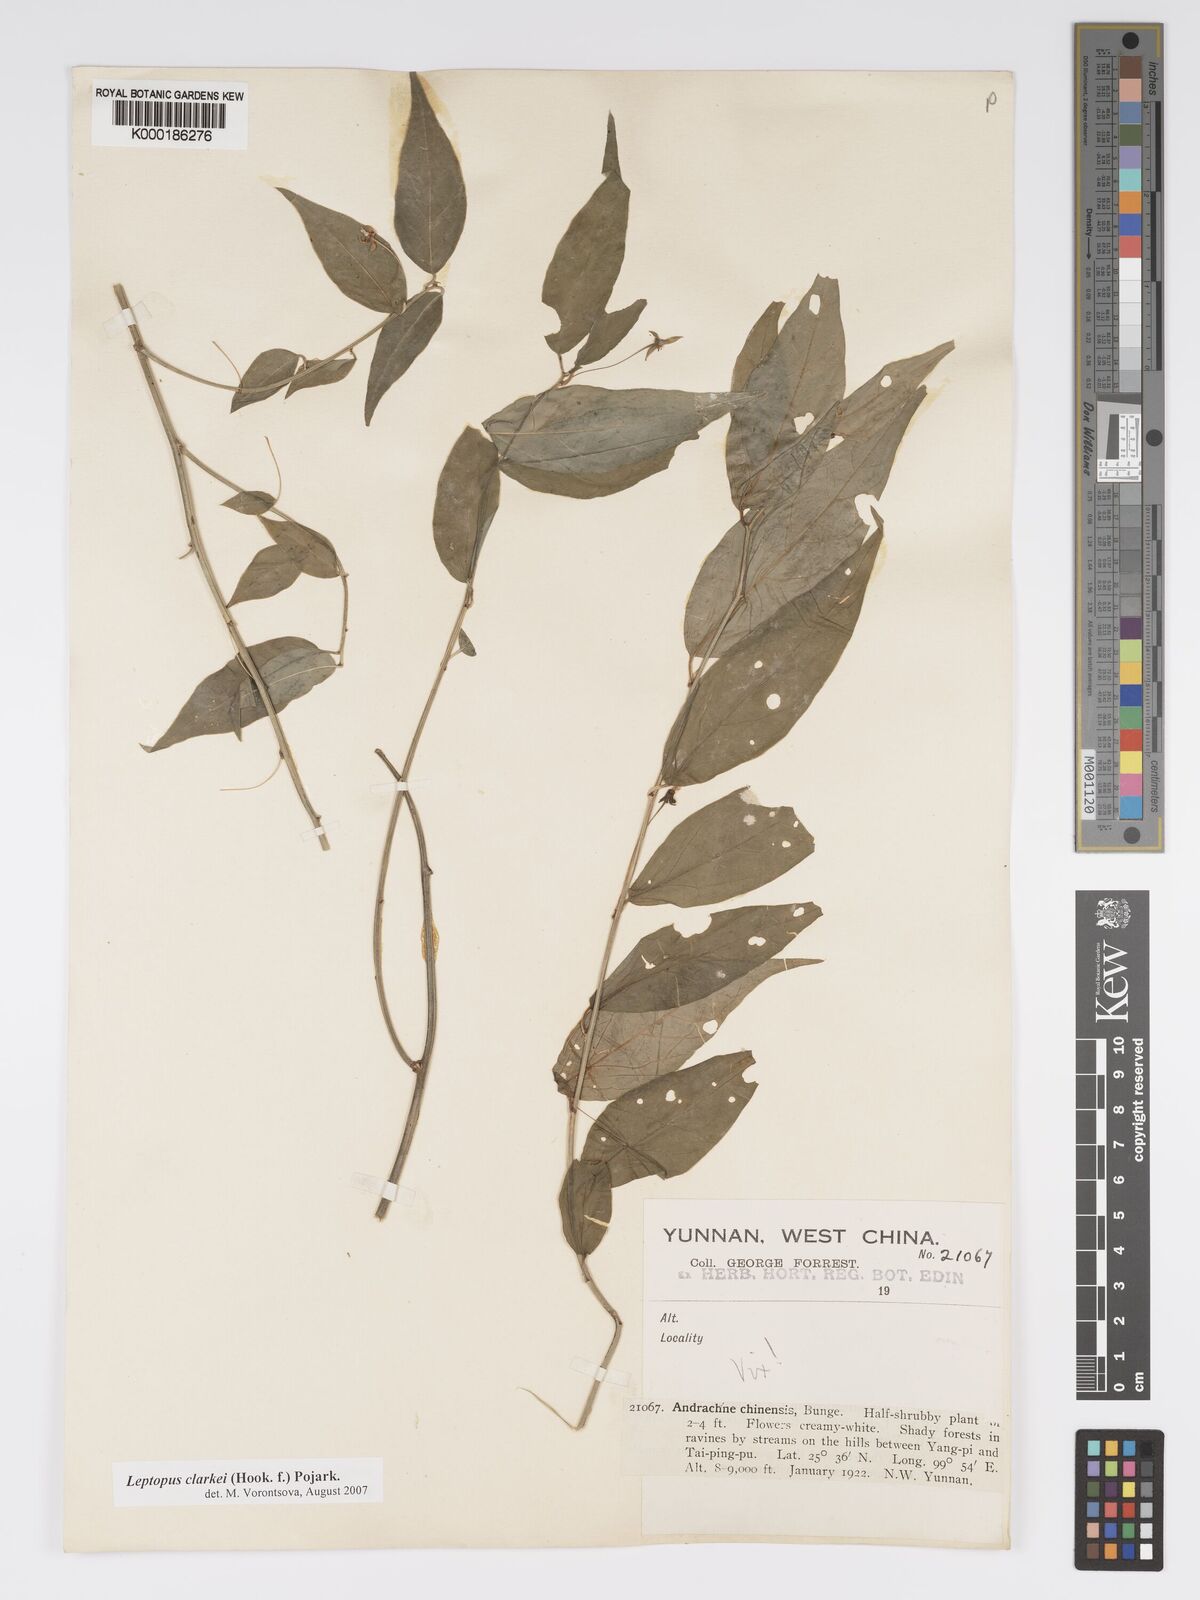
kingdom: Plantae
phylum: Tracheophyta
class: Magnoliopsida
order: Malpighiales
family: Phyllanthaceae
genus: Leptopus
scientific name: Leptopus chinensis
